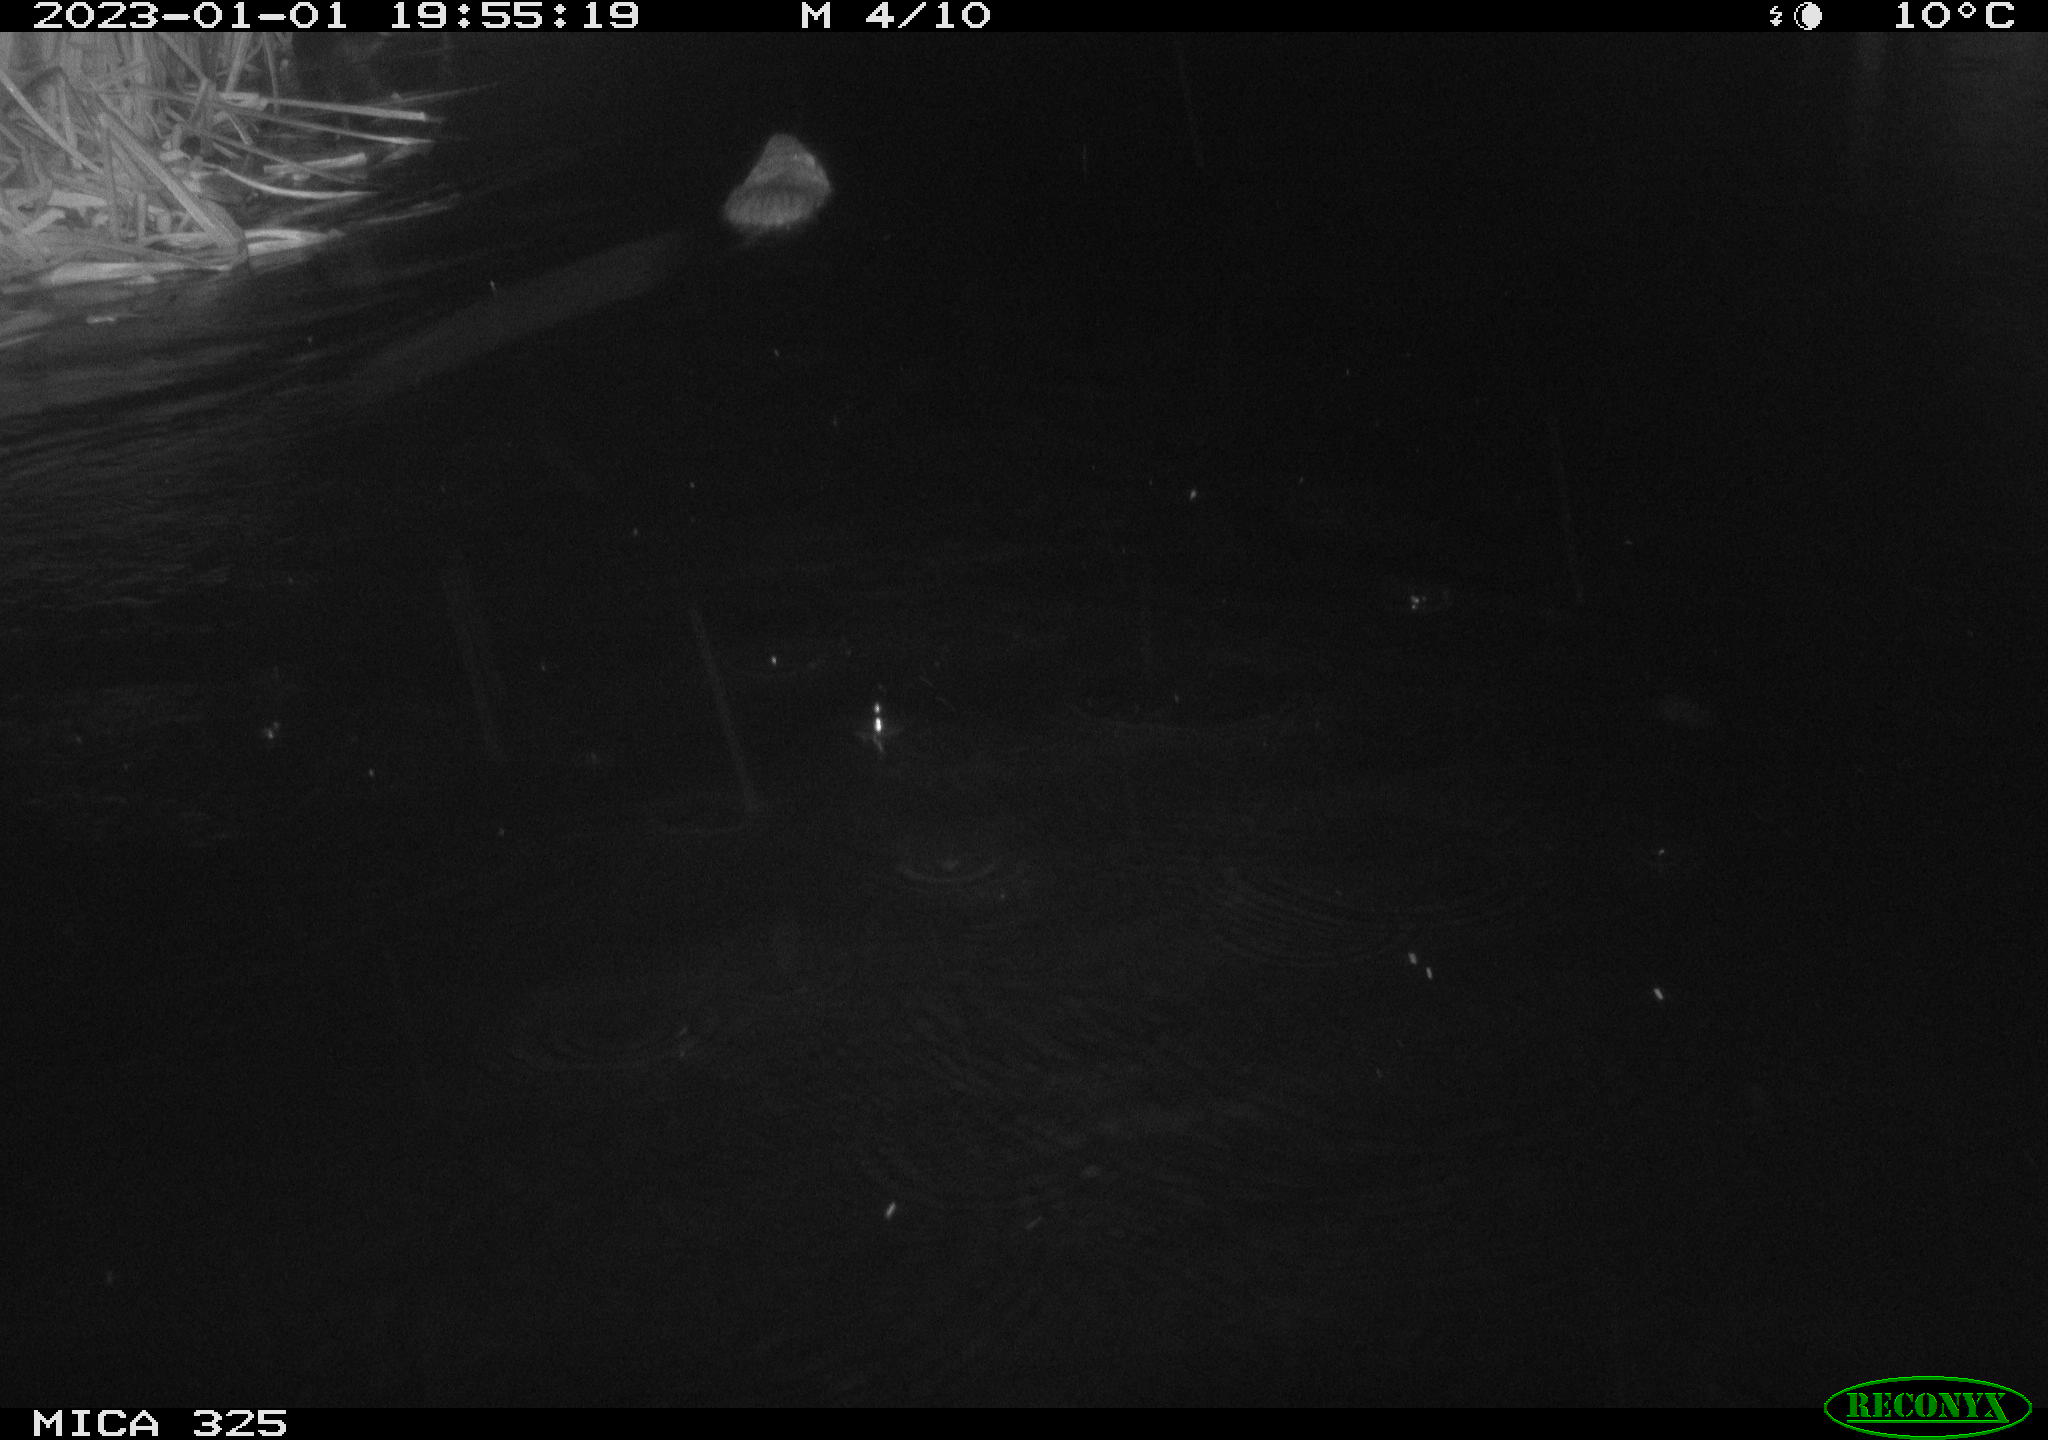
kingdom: Animalia
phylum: Chordata
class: Mammalia
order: Rodentia
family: Myocastoridae
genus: Myocastor
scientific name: Myocastor coypus
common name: Coypu
